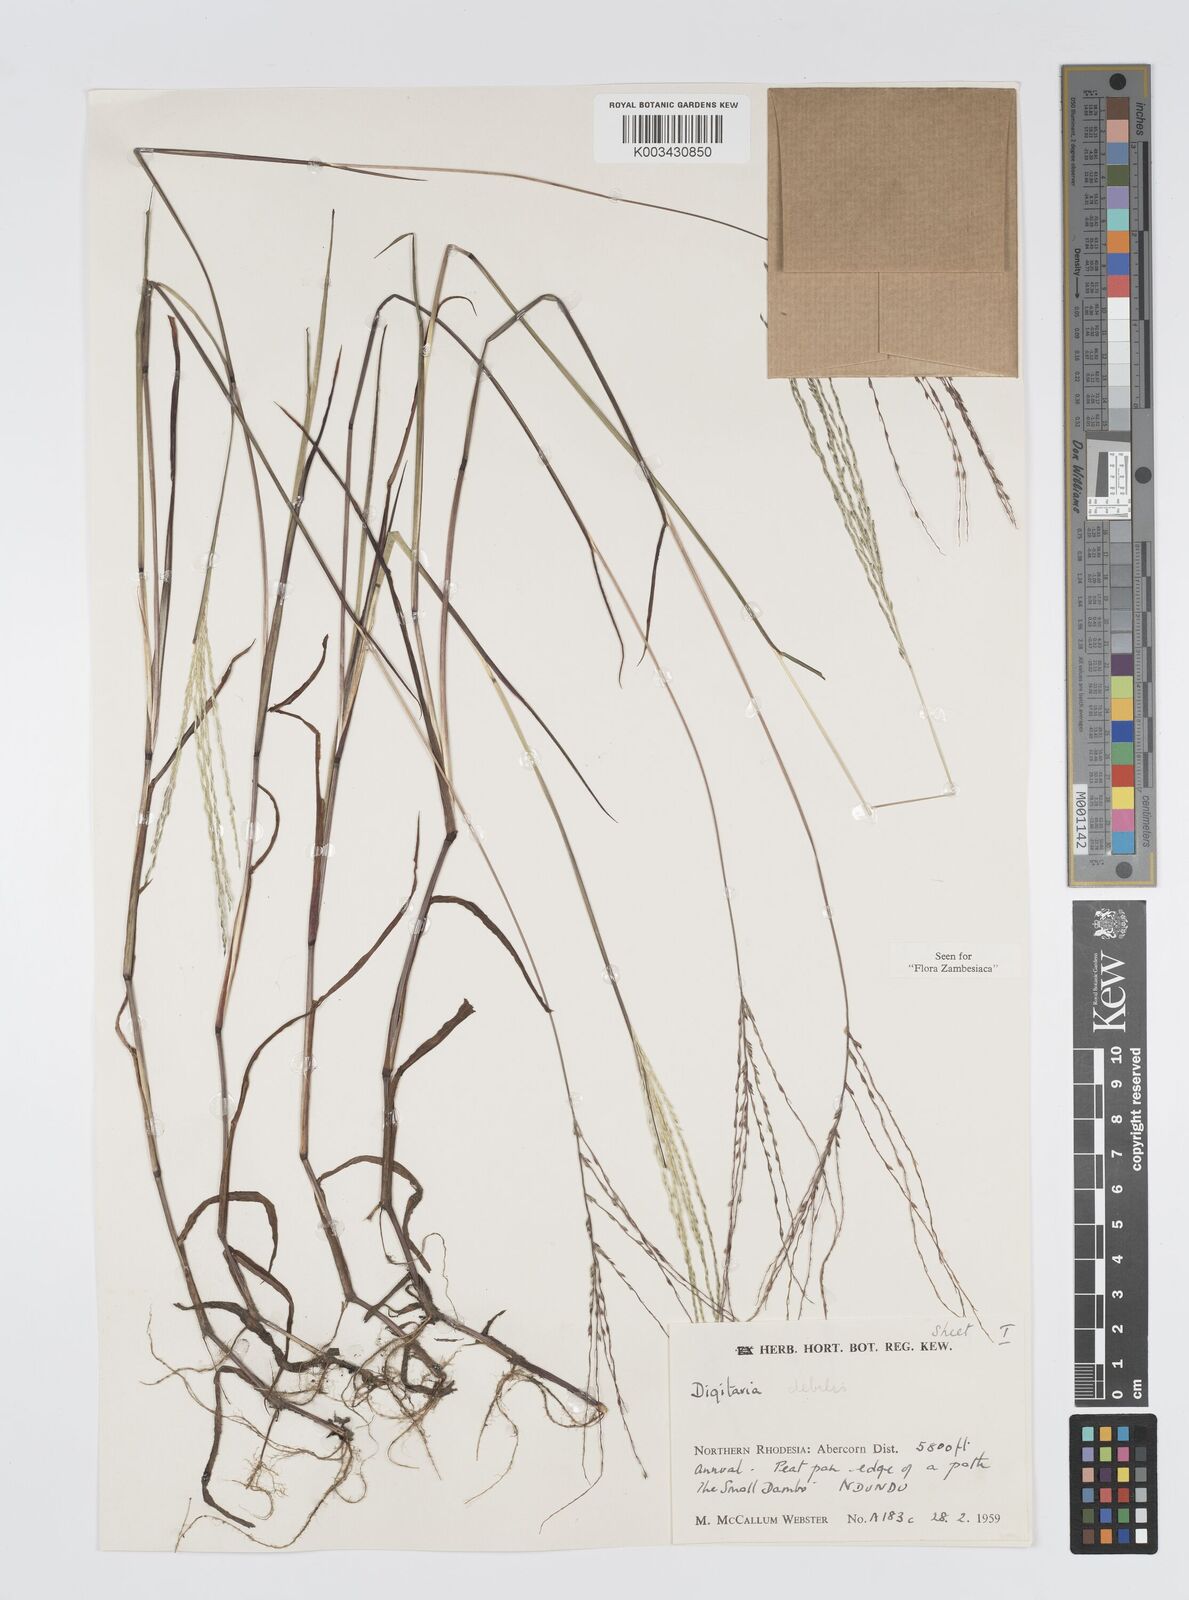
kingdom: Plantae
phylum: Tracheophyta
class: Liliopsida
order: Poales
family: Poaceae
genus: Digitaria
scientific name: Digitaria debilis
